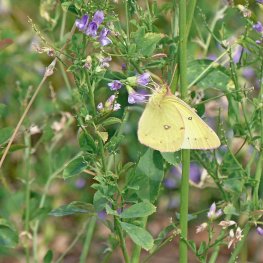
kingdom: Animalia
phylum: Arthropoda
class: Insecta
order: Lepidoptera
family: Pieridae
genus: Colias
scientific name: Colias philodice
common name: Clouded Sulphur
